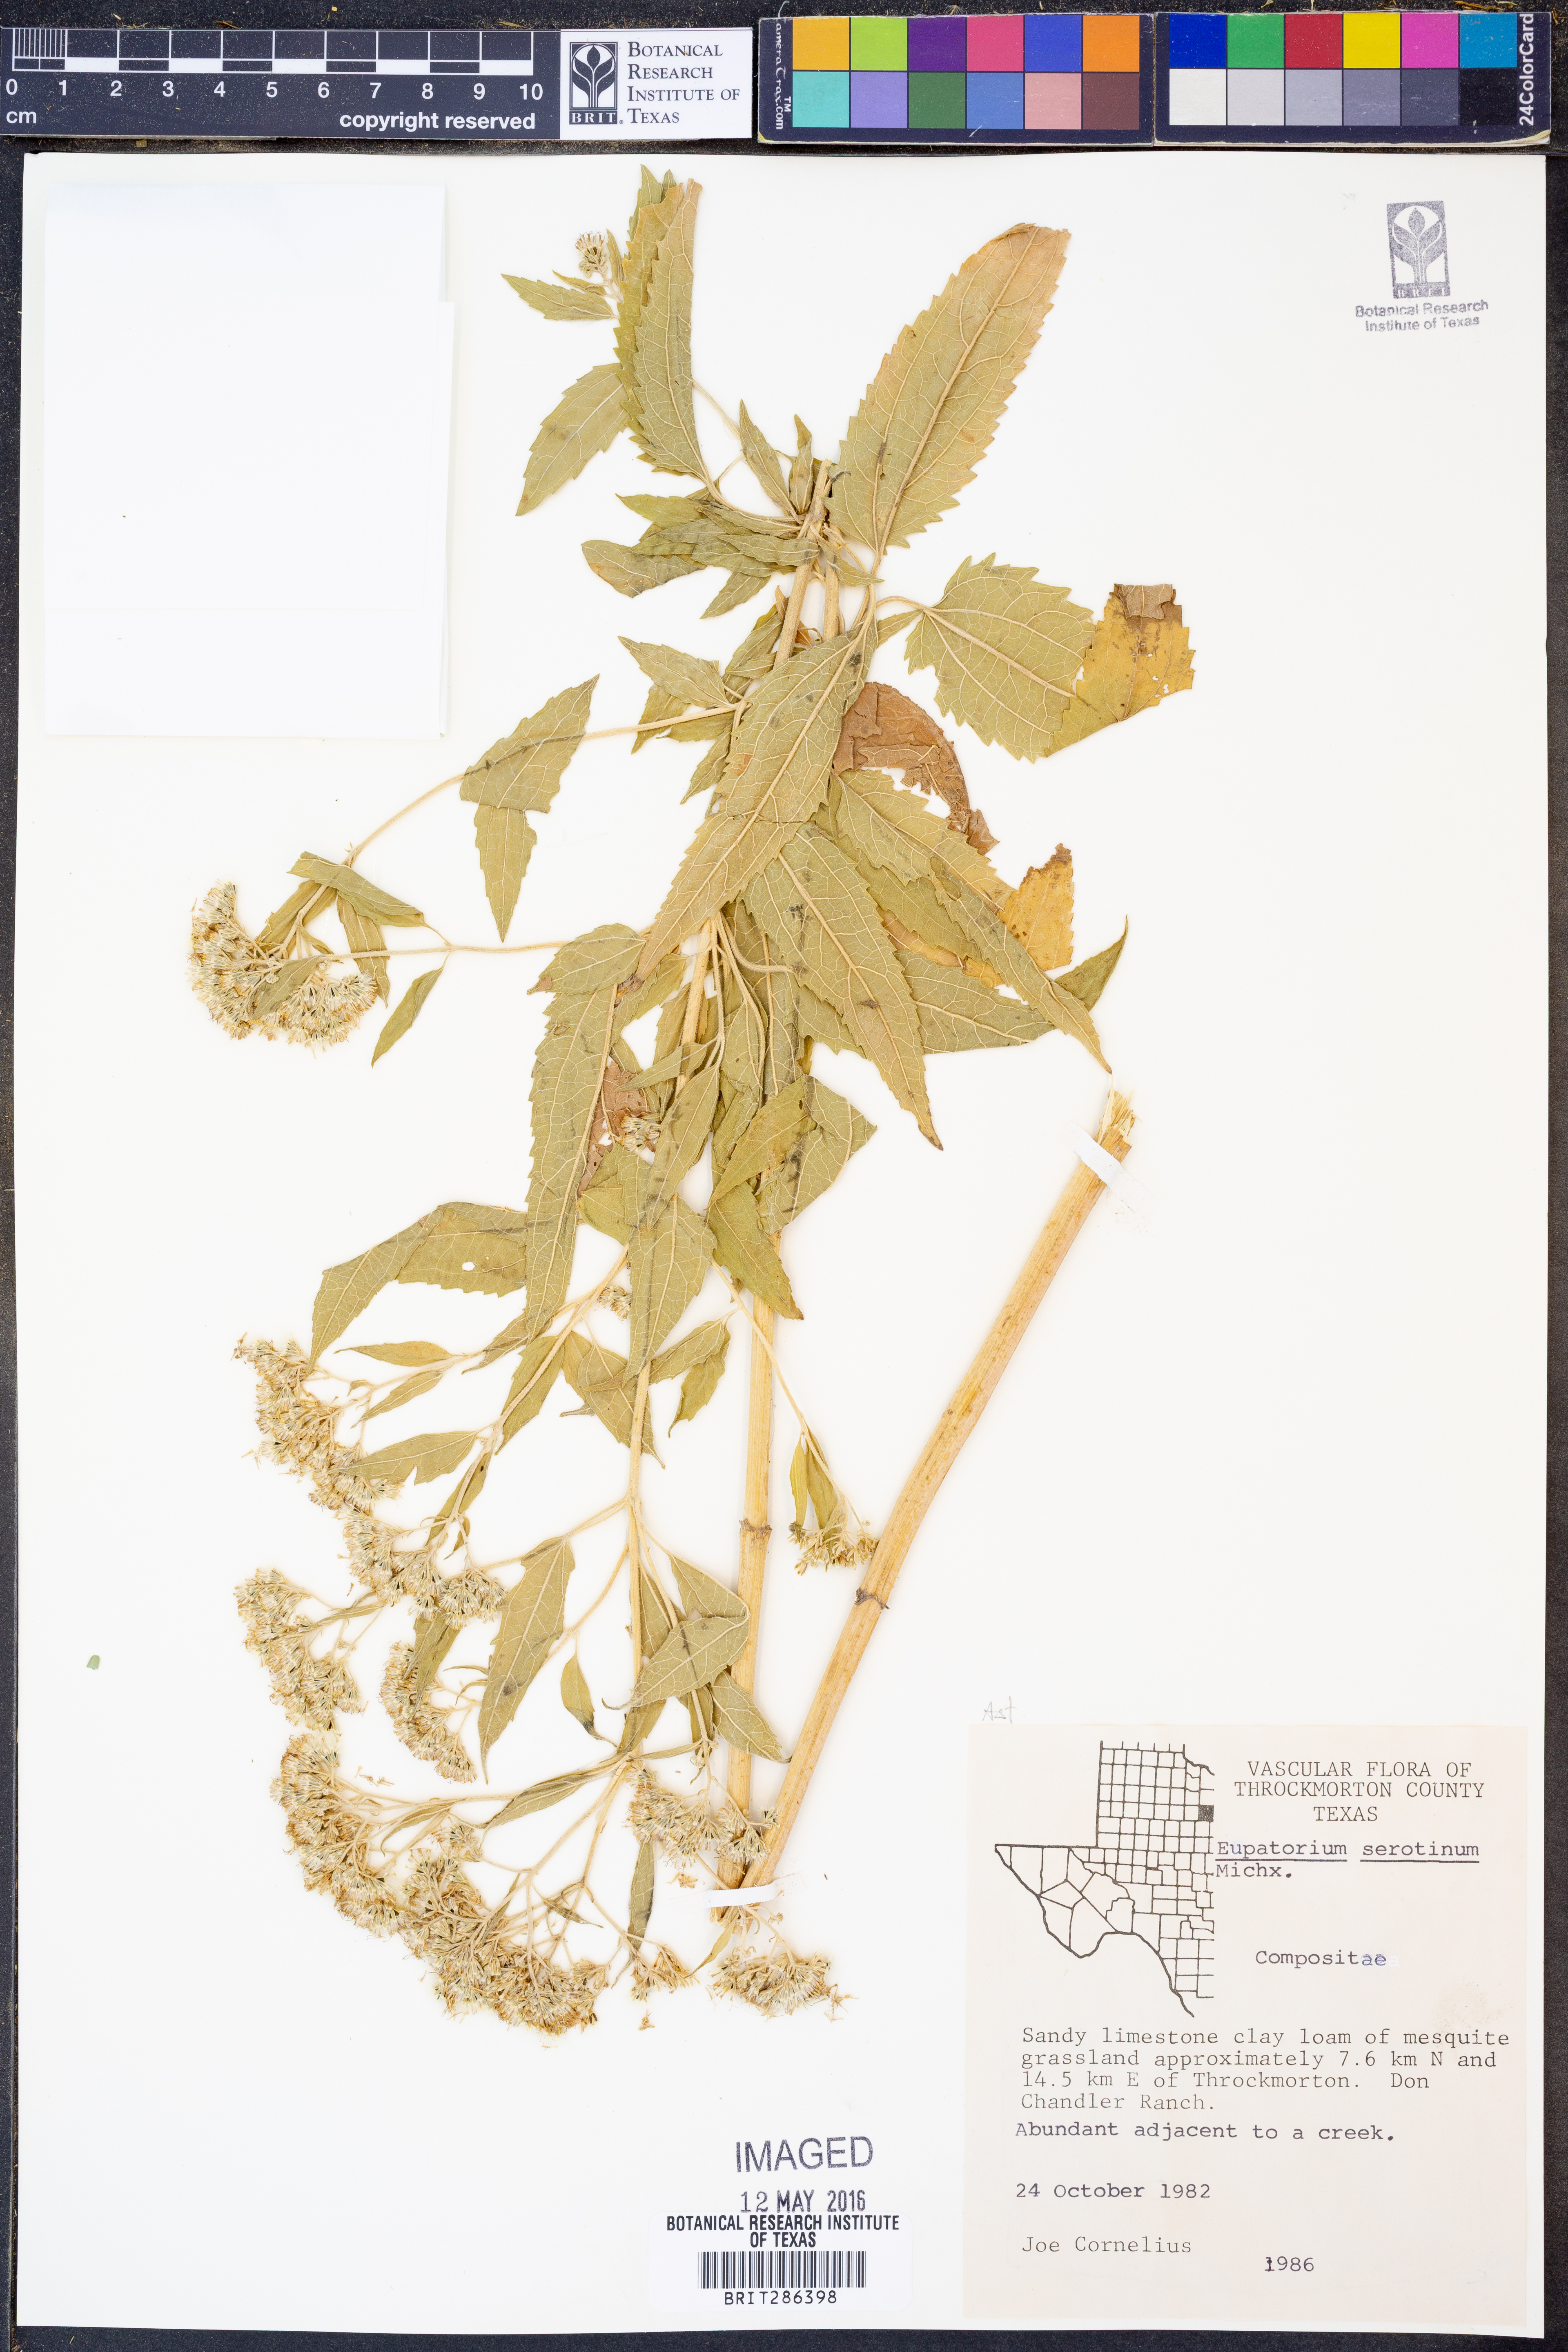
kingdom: Plantae
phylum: Tracheophyta
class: Magnoliopsida
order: Asterales
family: Asteraceae
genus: Eupatorium
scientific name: Eupatorium serotinum
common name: Late boneset
